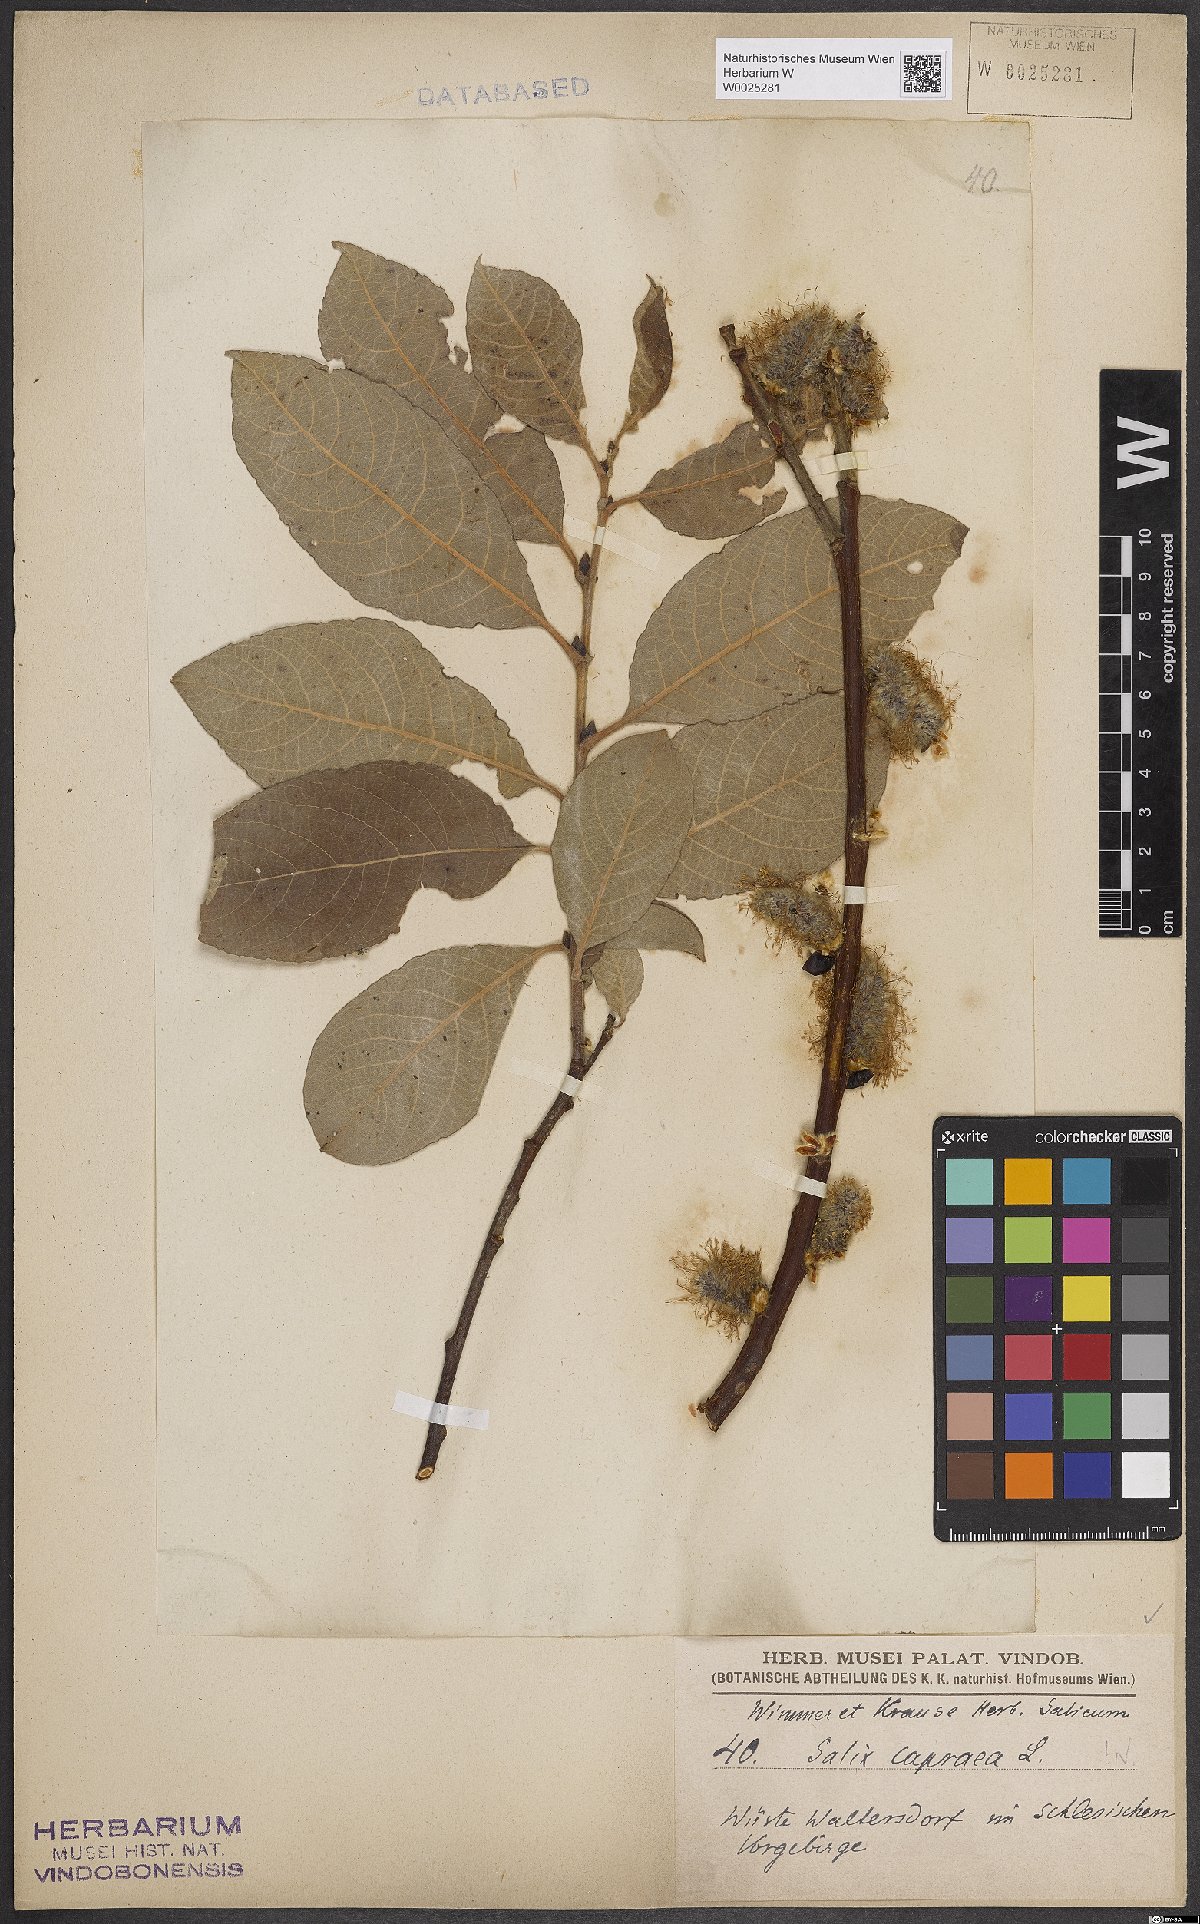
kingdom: Plantae
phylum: Tracheophyta
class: Magnoliopsida
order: Malpighiales
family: Salicaceae
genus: Salix
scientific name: Salix caprea
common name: Goat willow
